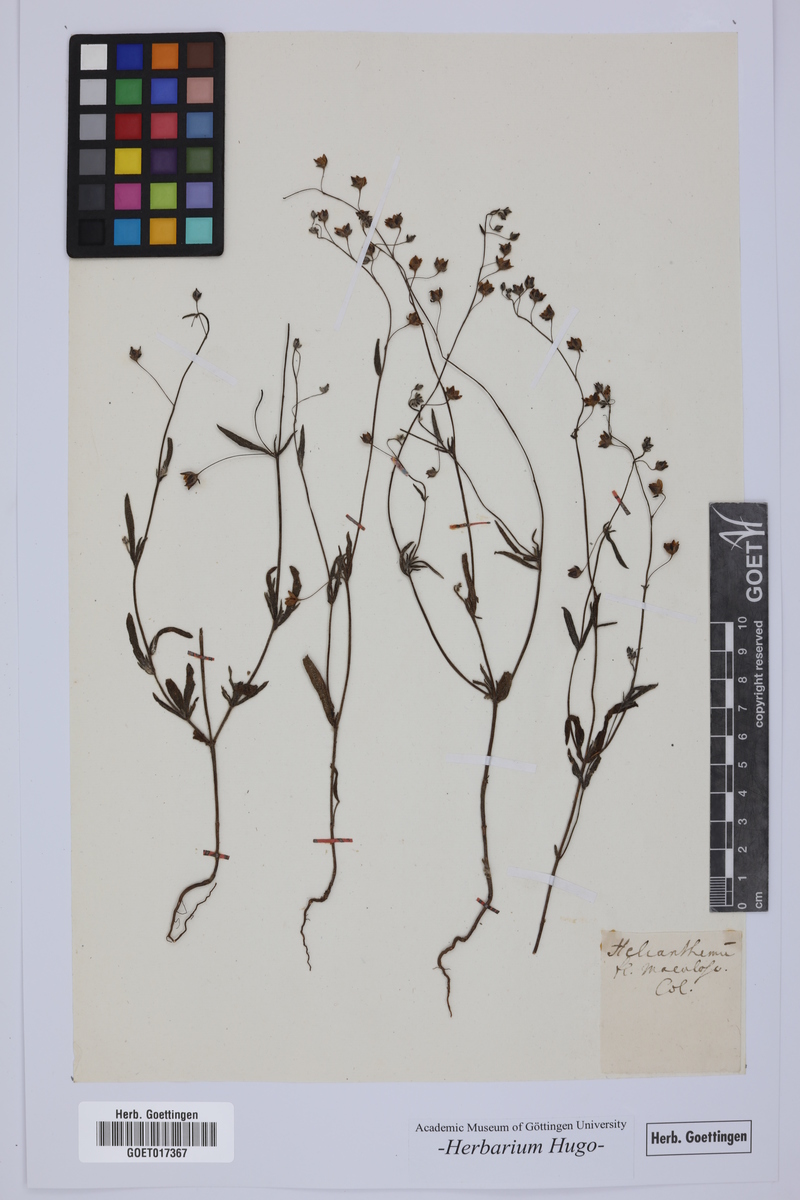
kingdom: Plantae
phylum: Tracheophyta
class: Magnoliopsida
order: Malvales
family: Cistaceae
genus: Tuberaria
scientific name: Tuberaria guttata
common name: Spotted rock-rose
